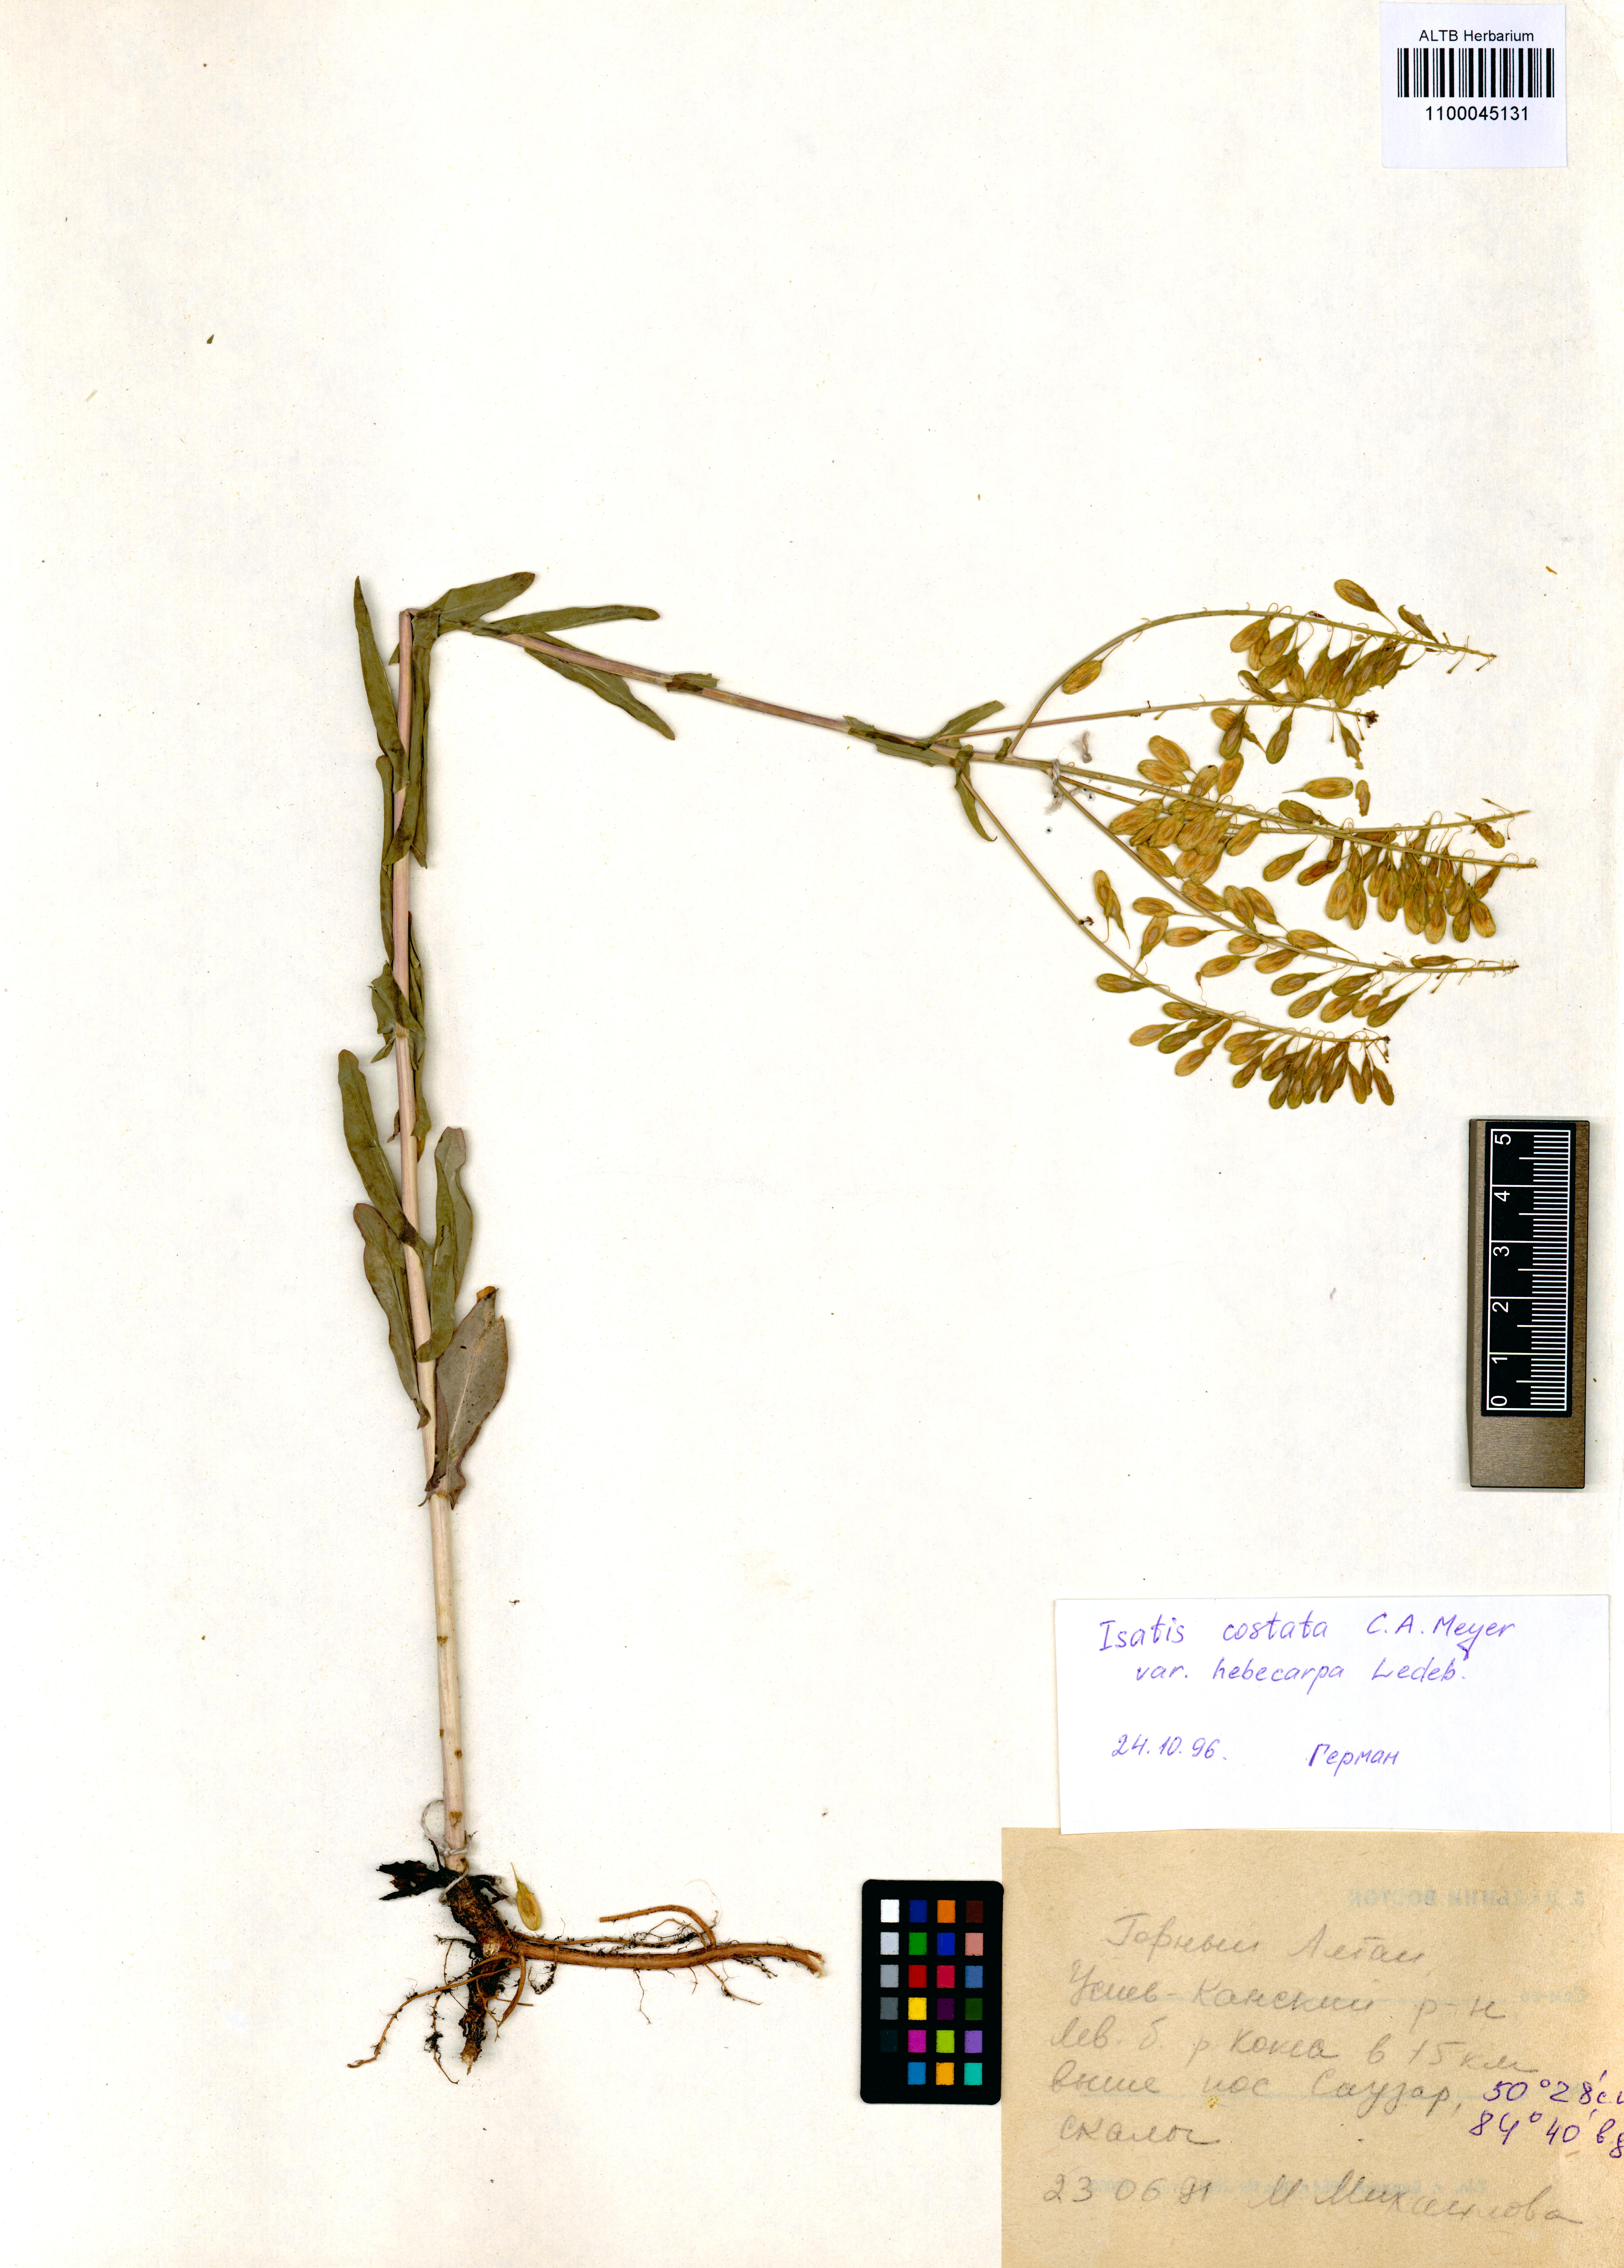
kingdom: Plantae
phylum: Tracheophyta
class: Magnoliopsida
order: Brassicales
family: Brassicaceae
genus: Isatis
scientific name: Isatis costata
